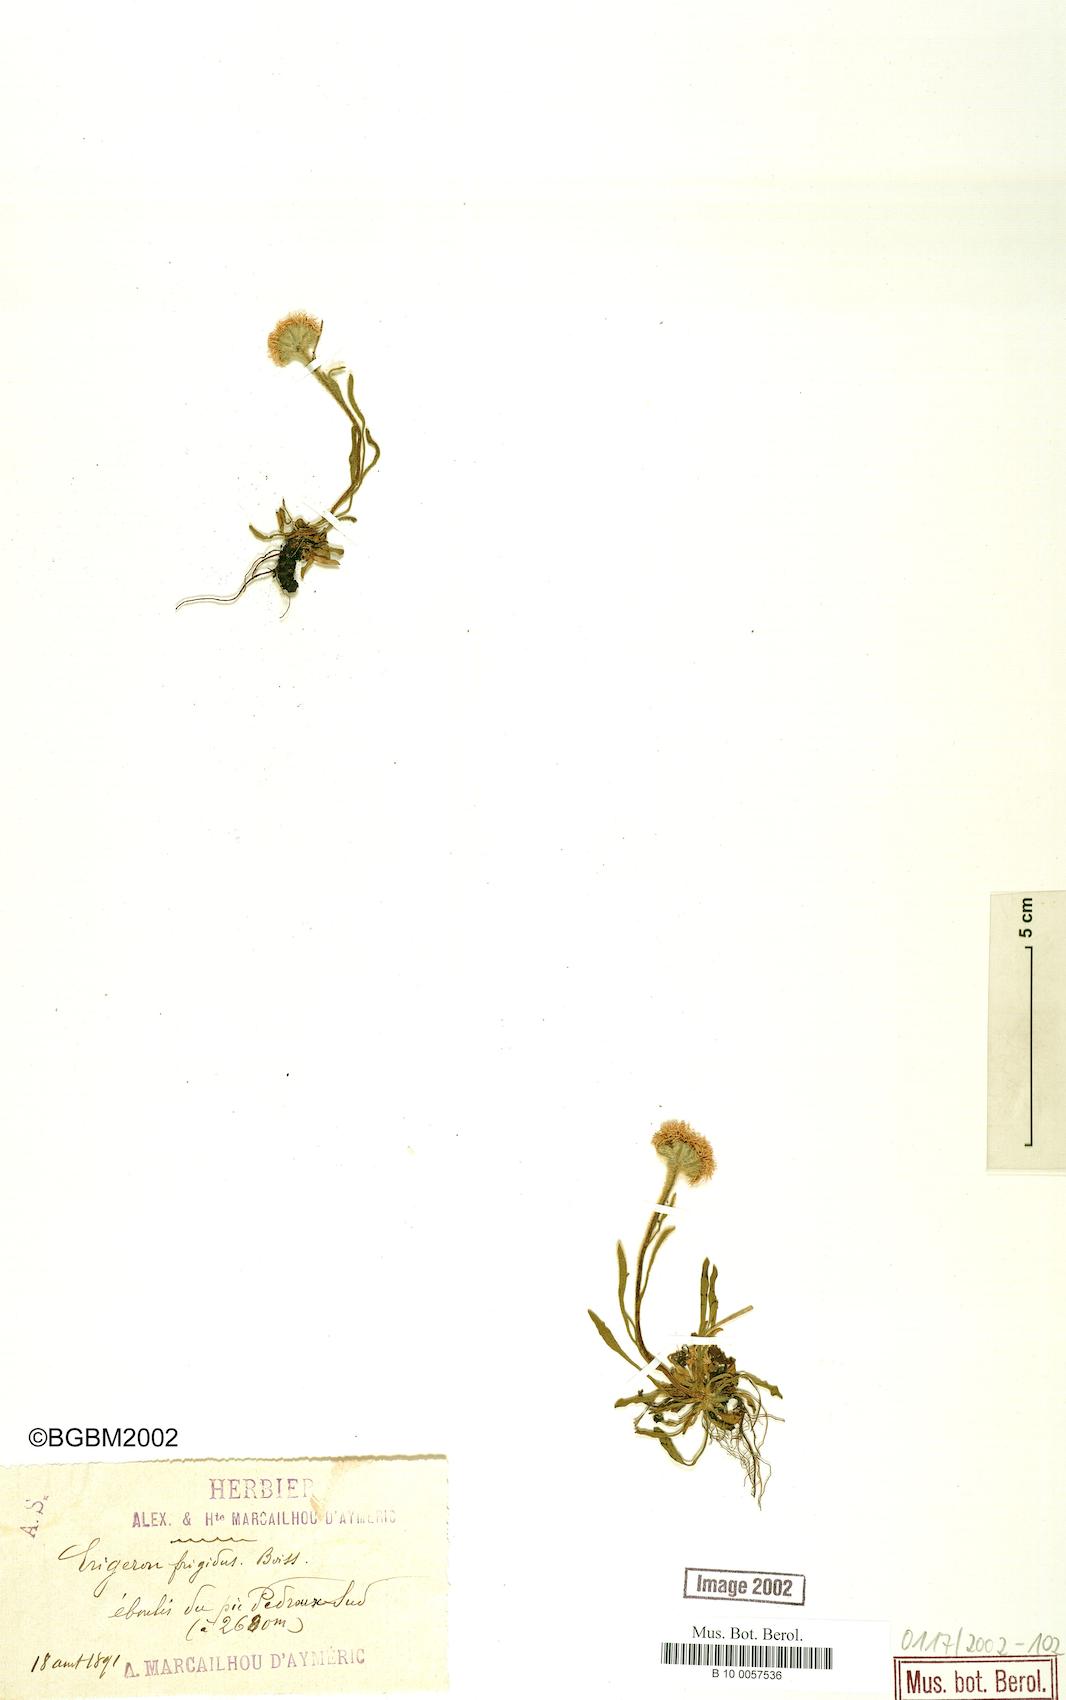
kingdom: Plantae
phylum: Tracheophyta
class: Magnoliopsida
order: Asterales
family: Asteraceae
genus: Erigeron
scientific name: Erigeron aragonensis
